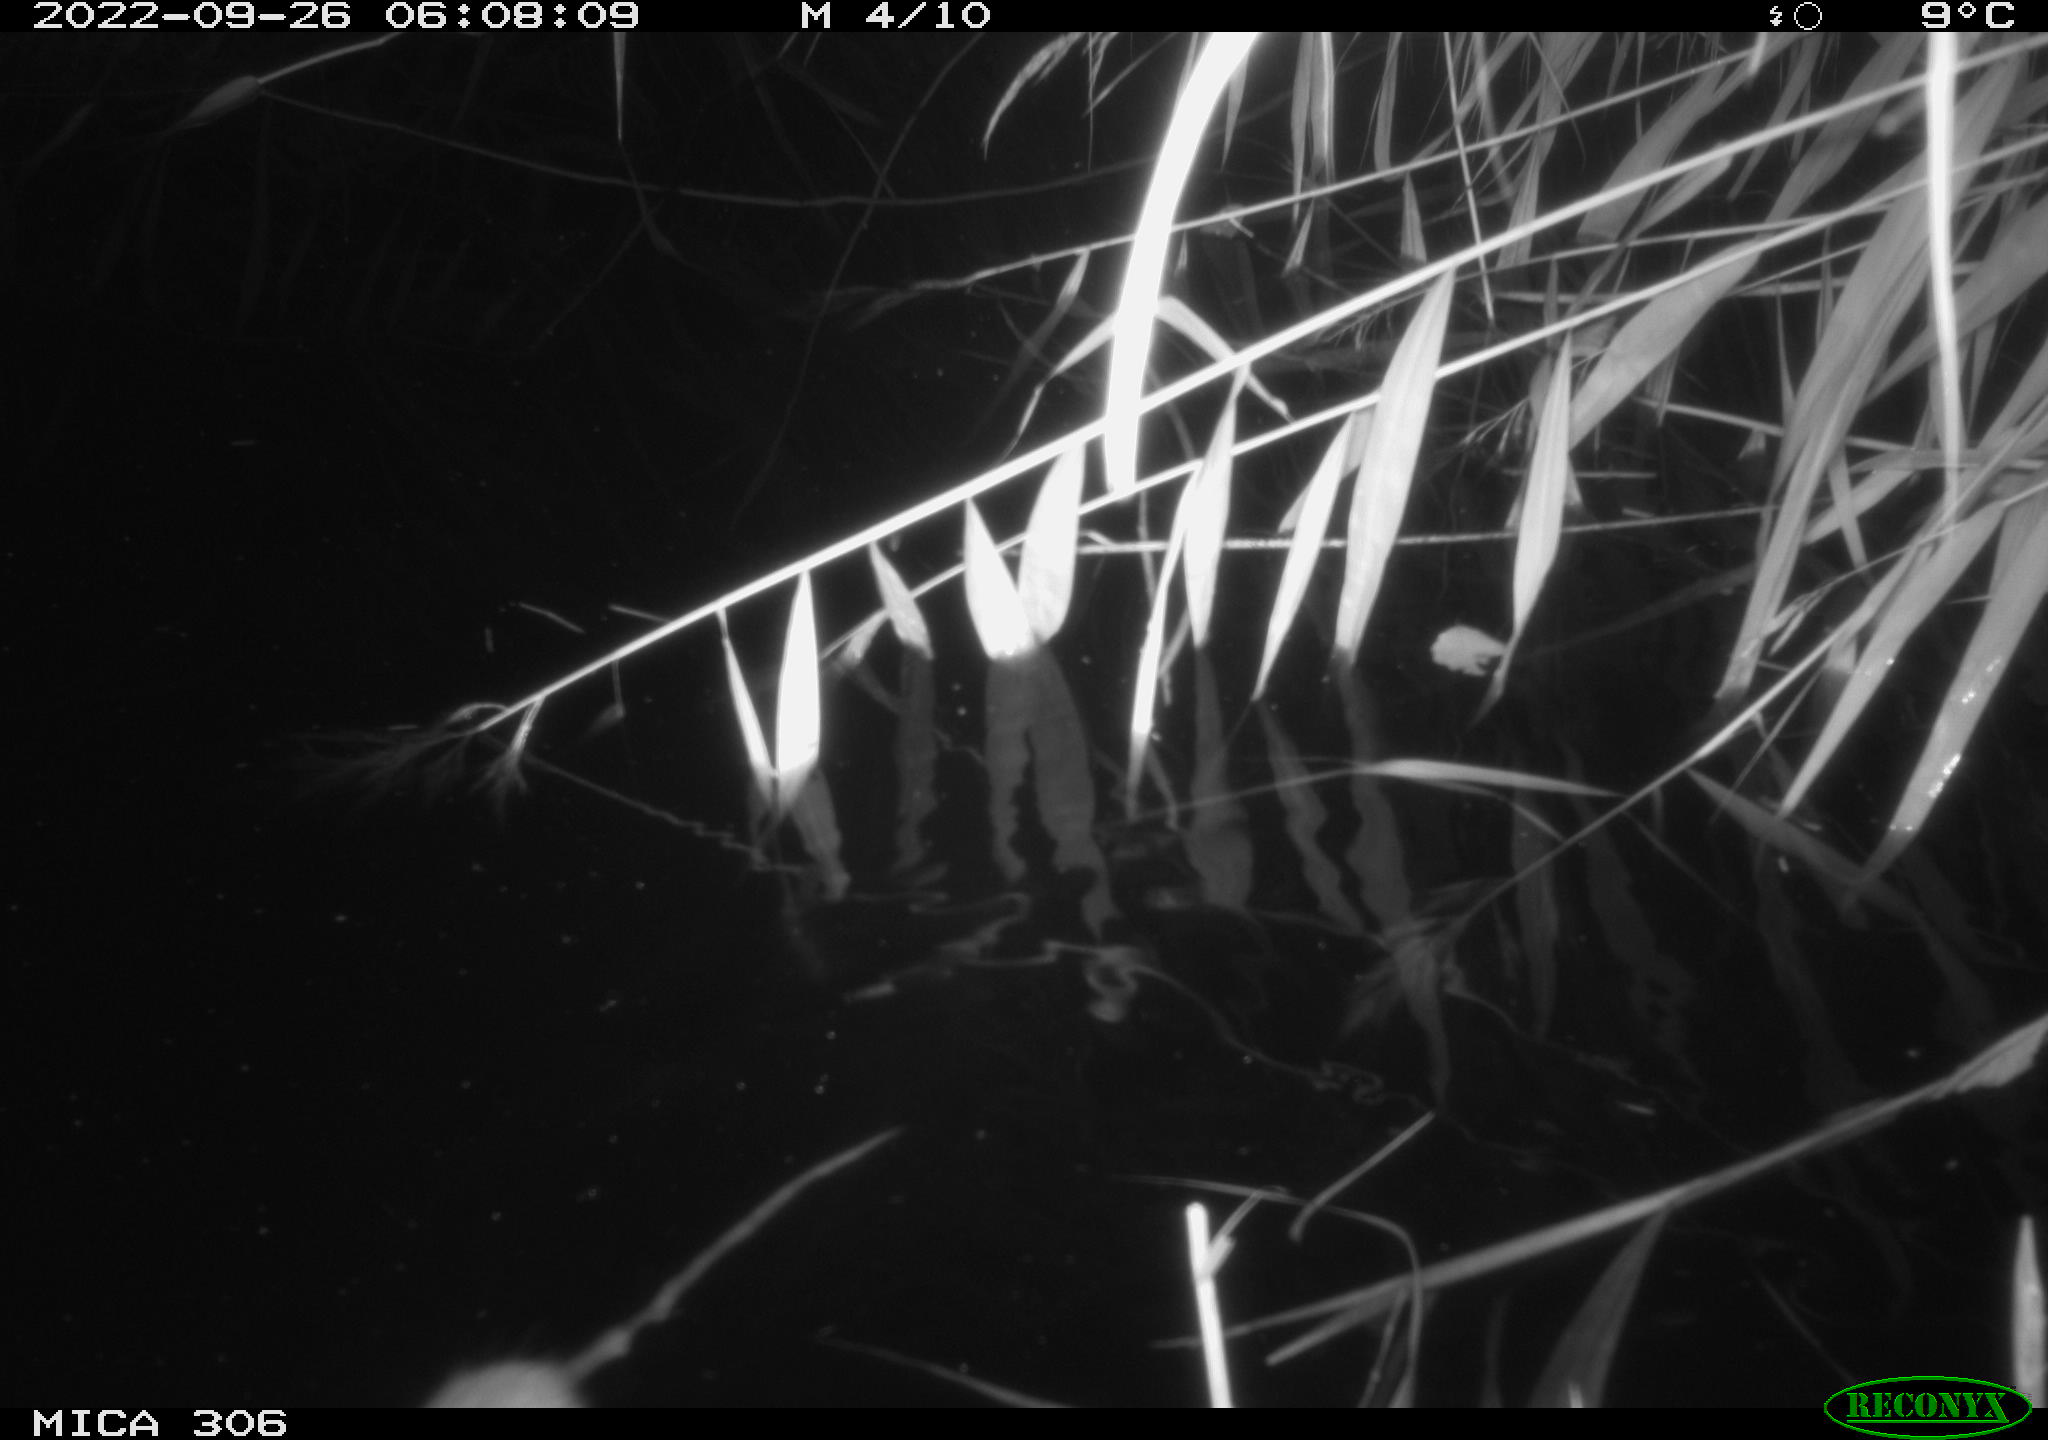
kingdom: Animalia
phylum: Chordata
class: Mammalia
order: Rodentia
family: Muridae
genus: Rattus
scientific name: Rattus norvegicus
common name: Brown rat
